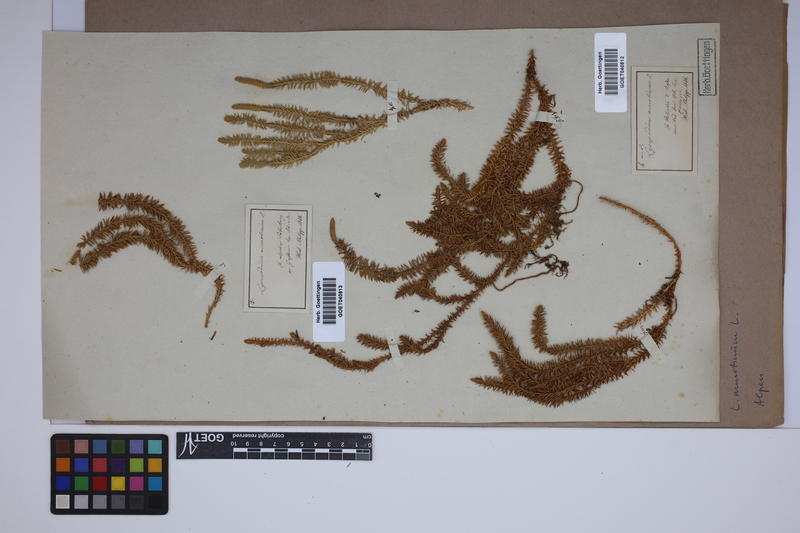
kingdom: Plantae
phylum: Tracheophyta
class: Lycopodiopsida
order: Lycopodiales
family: Lycopodiaceae
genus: Spinulum
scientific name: Spinulum annotinum
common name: Interrupted club-moss
